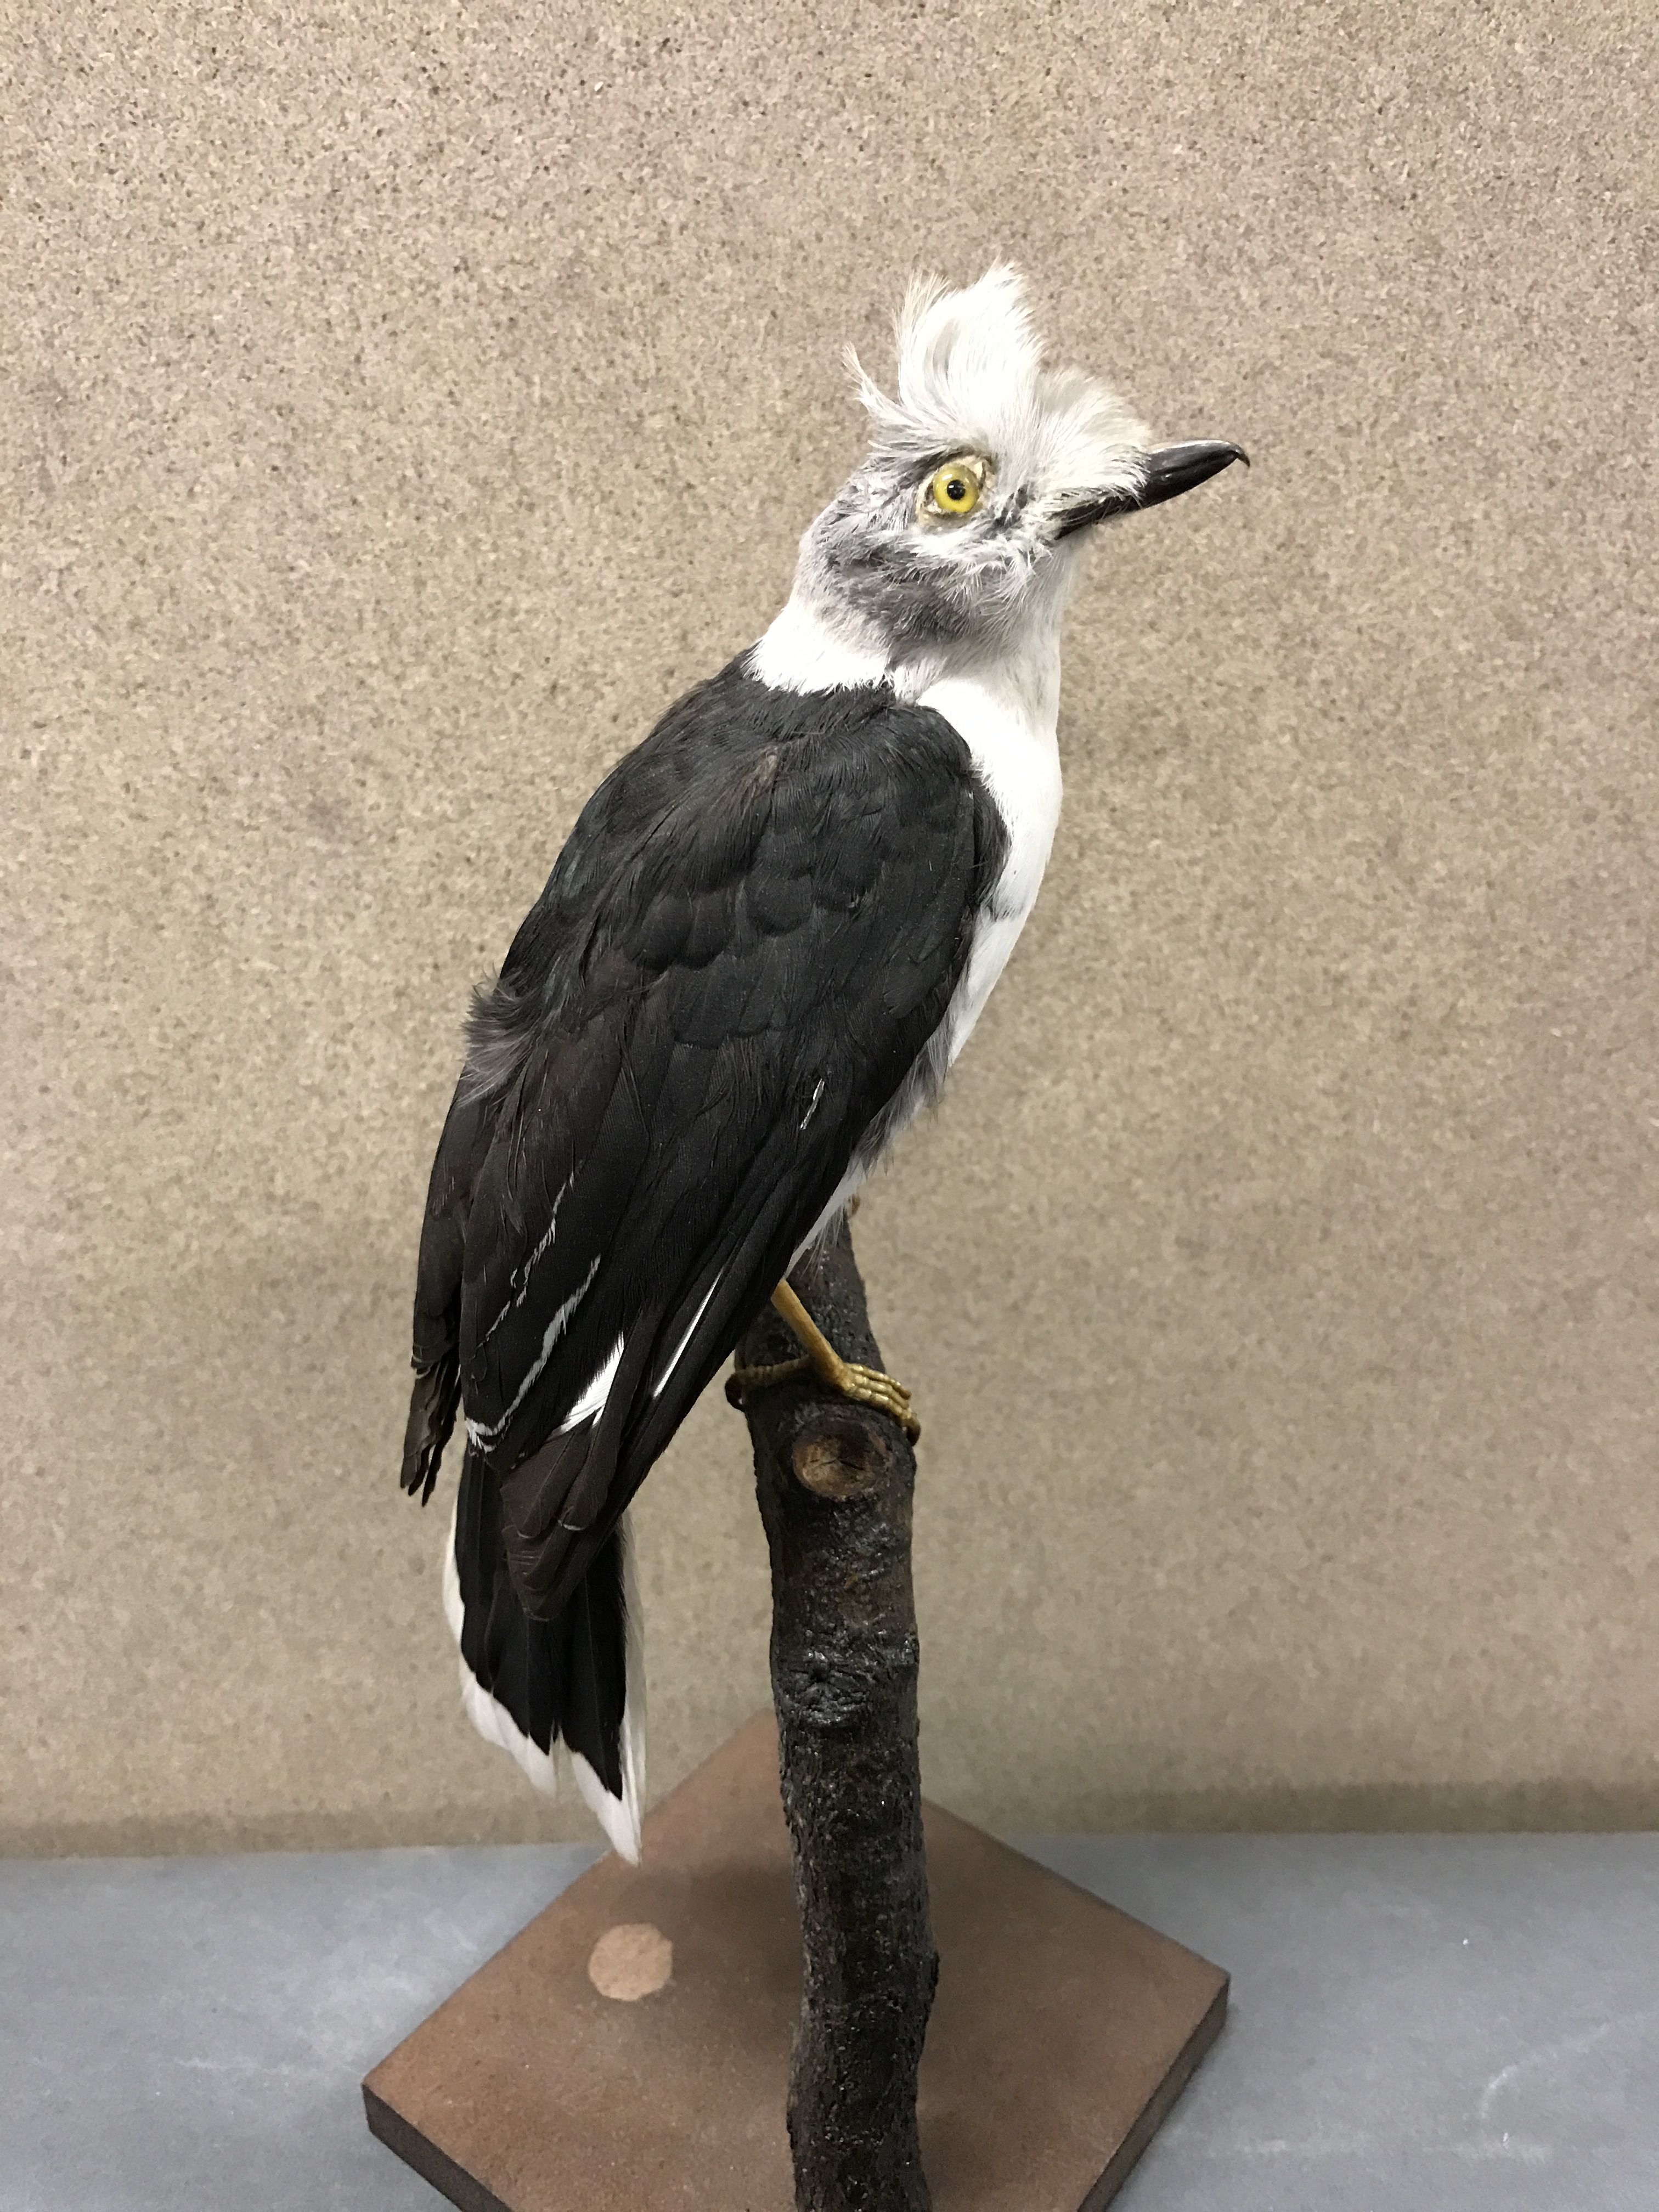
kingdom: Animalia
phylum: Chordata
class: Aves
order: Passeriformes
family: Prionopidae
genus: Prionops
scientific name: Prionops plumatus
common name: White-crested helmetshrike
